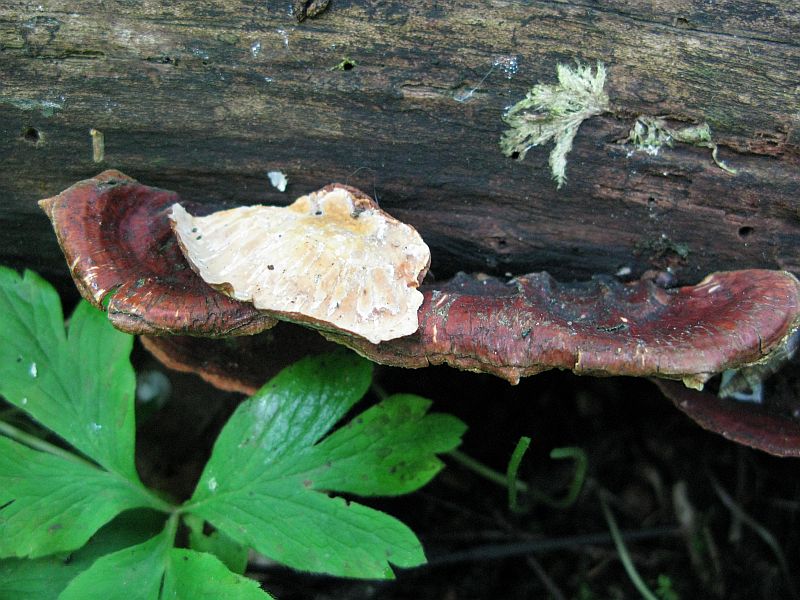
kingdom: Fungi
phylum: Basidiomycota
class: Agaricomycetes
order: Russulales
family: Stereaceae
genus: Stereum
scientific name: Stereum subtomentosum
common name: smuk lædersvamp
